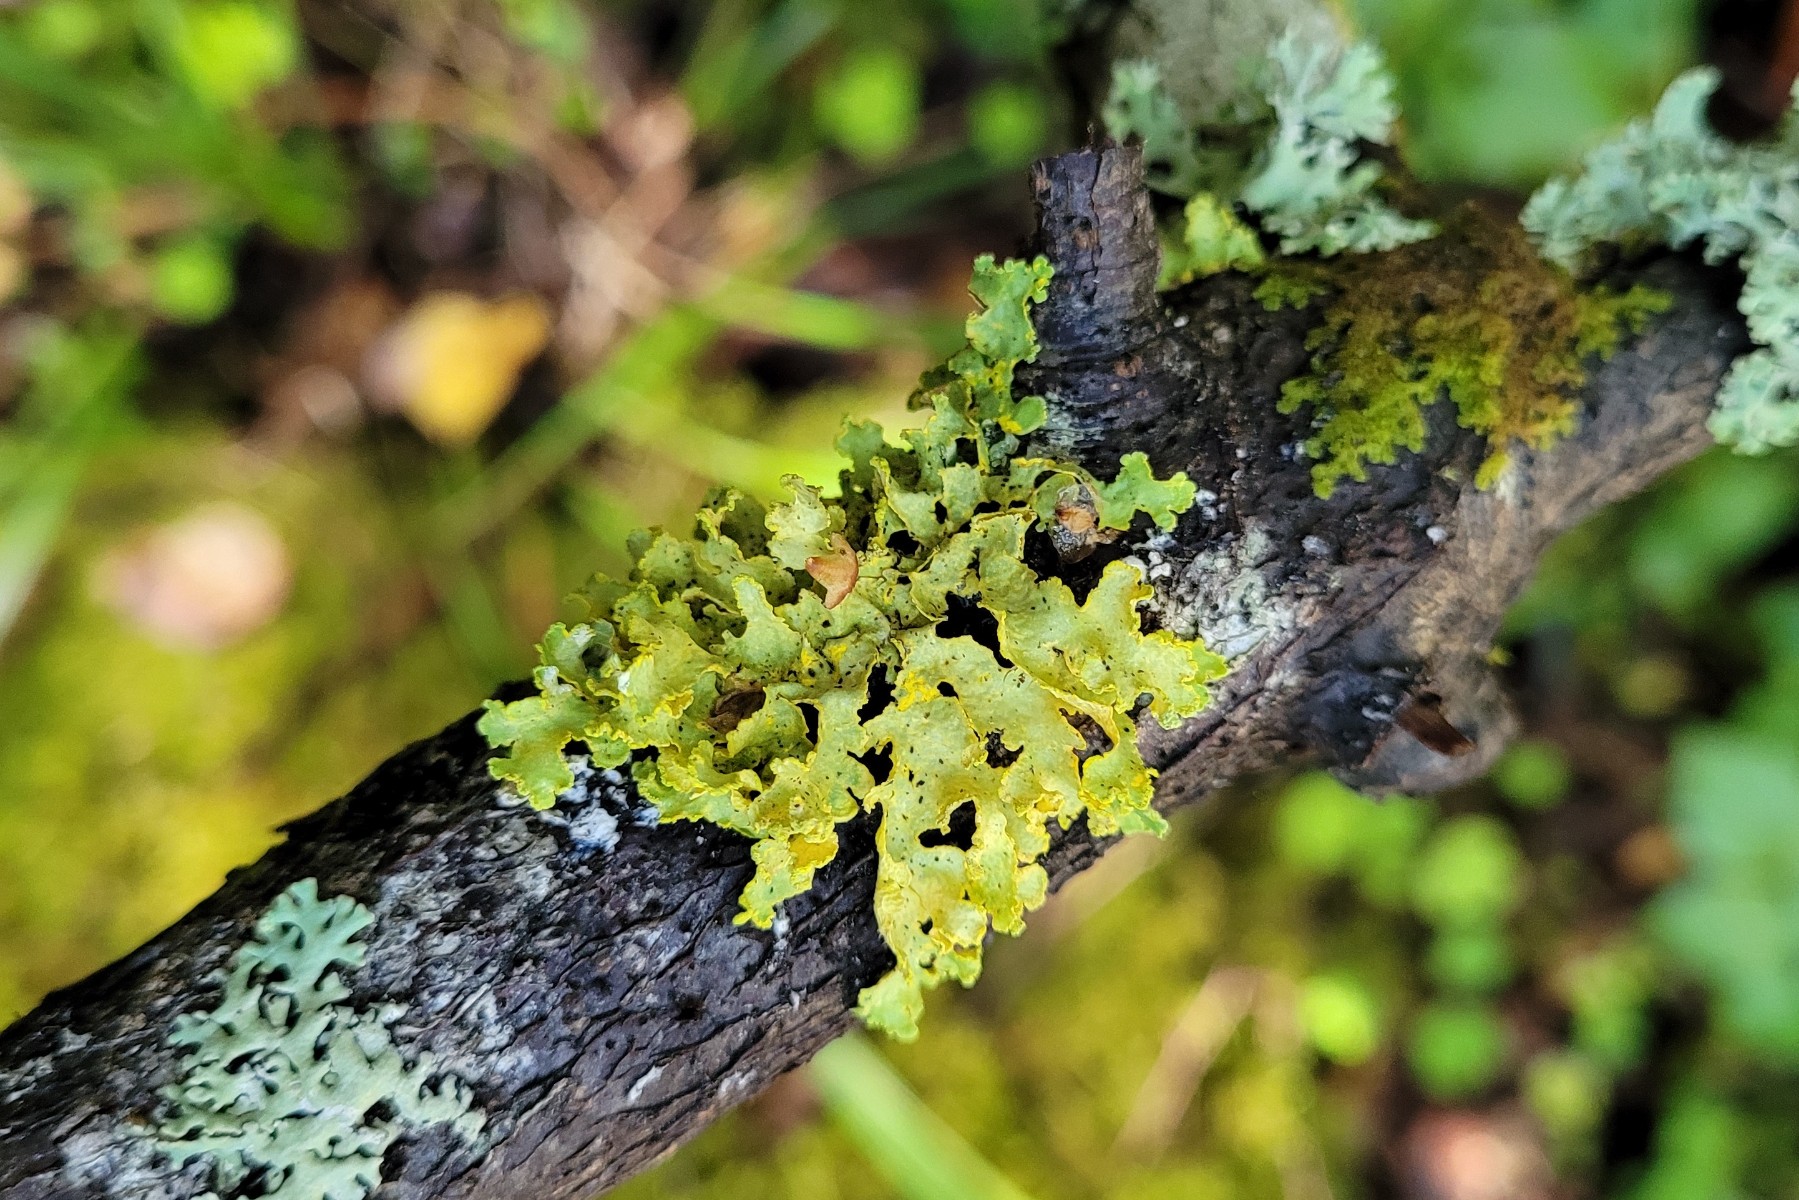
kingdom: Fungi
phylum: Ascomycota
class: Lecanoromycetes
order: Lecanorales
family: Parmeliaceae
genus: Vulpicida
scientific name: Vulpicida pinastri
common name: gul kruslav
